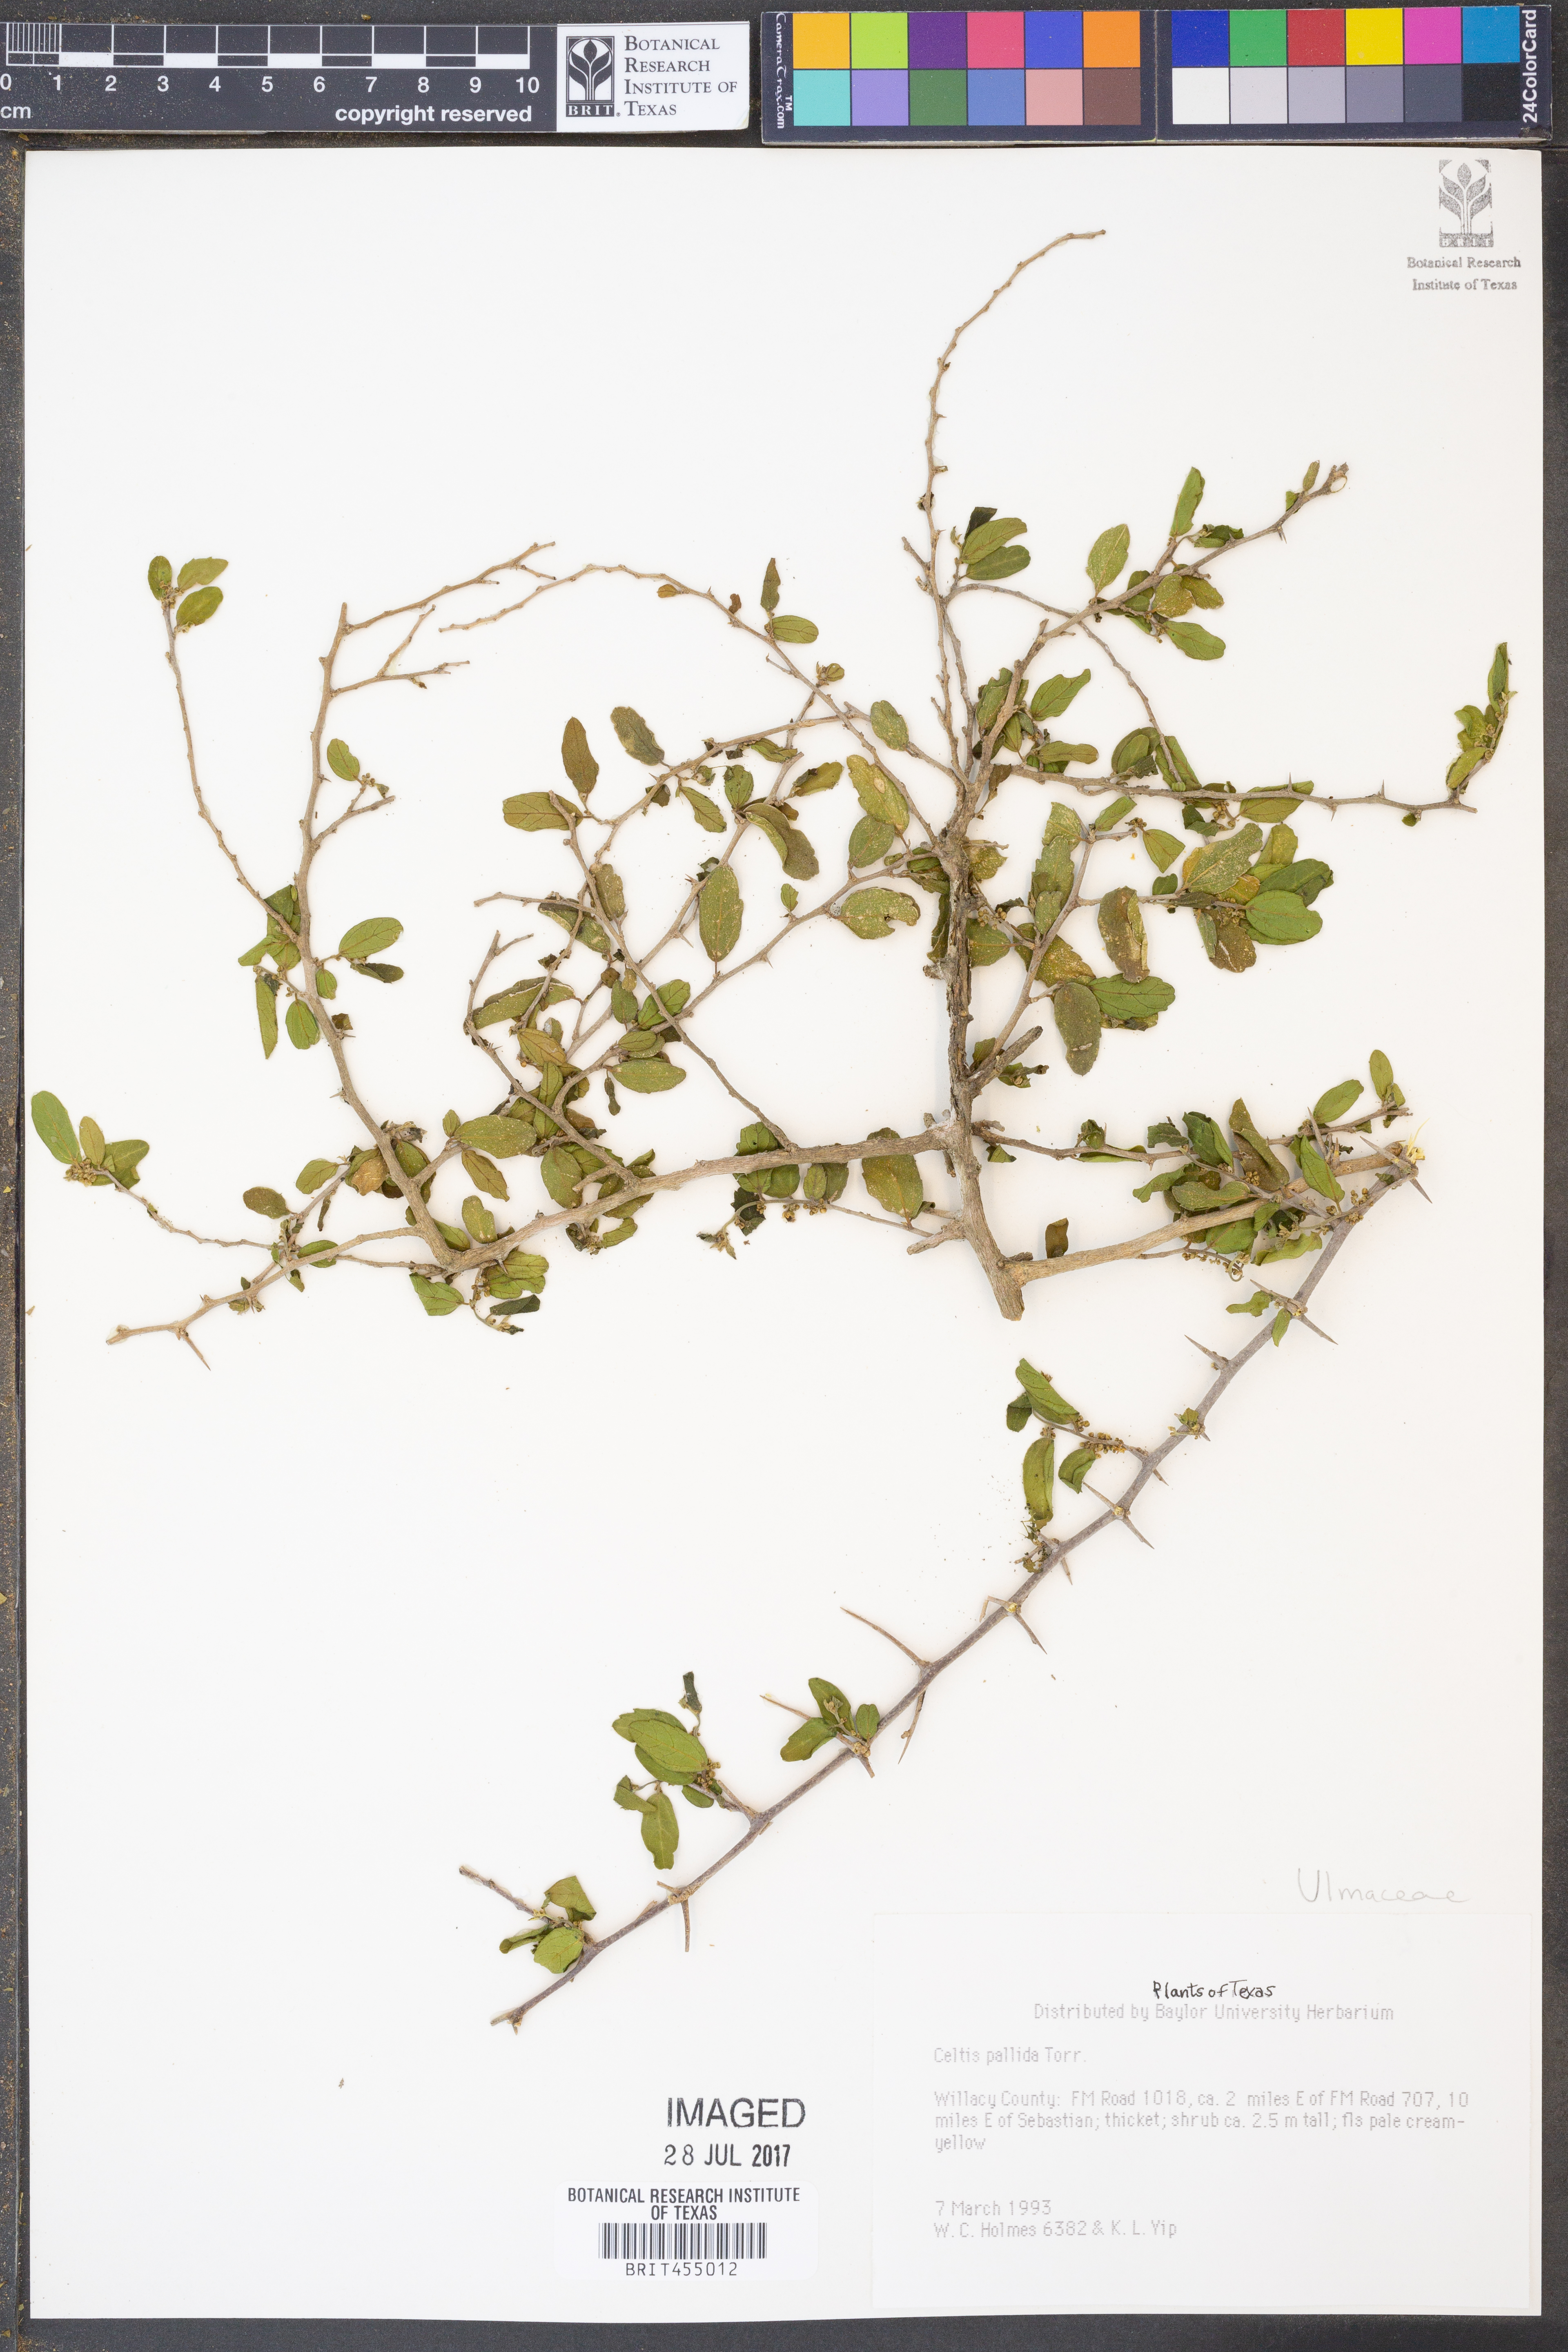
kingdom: Plantae
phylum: Tracheophyta
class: Magnoliopsida
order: Rosales
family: Cannabaceae
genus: Celtis
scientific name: Celtis pallida
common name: Desert hackberry
